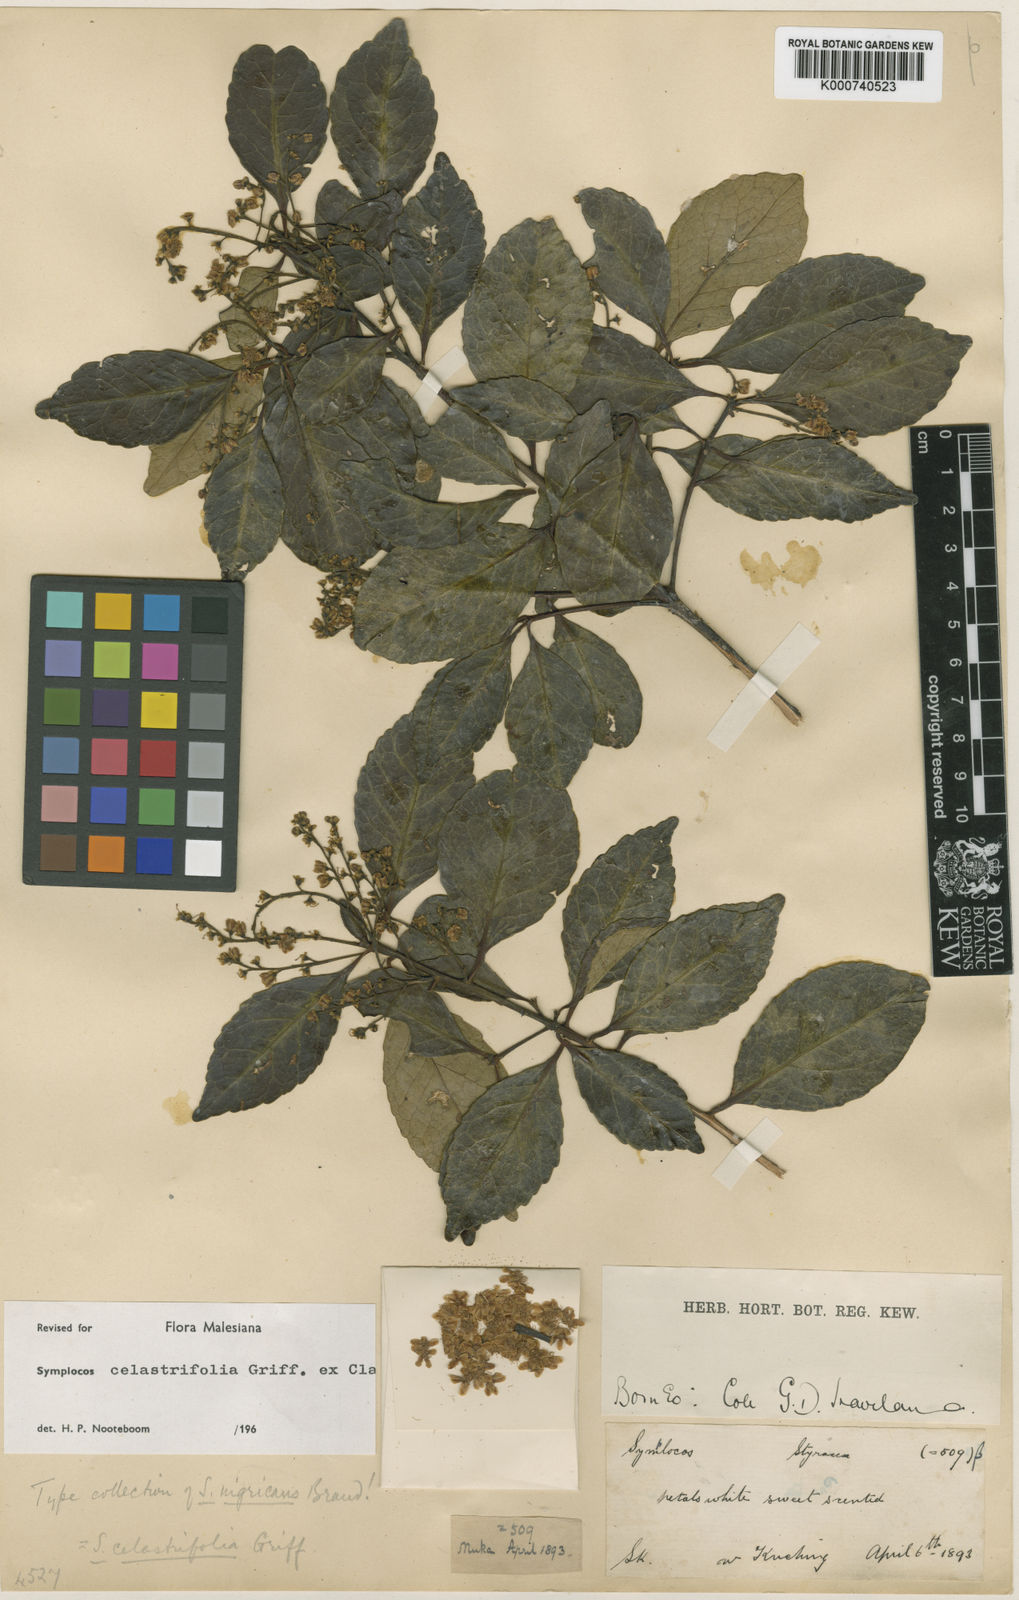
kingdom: Plantae
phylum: Tracheophyta
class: Magnoliopsida
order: Ericales
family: Symplocaceae
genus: Symplocos
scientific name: Symplocos celastrifolia
